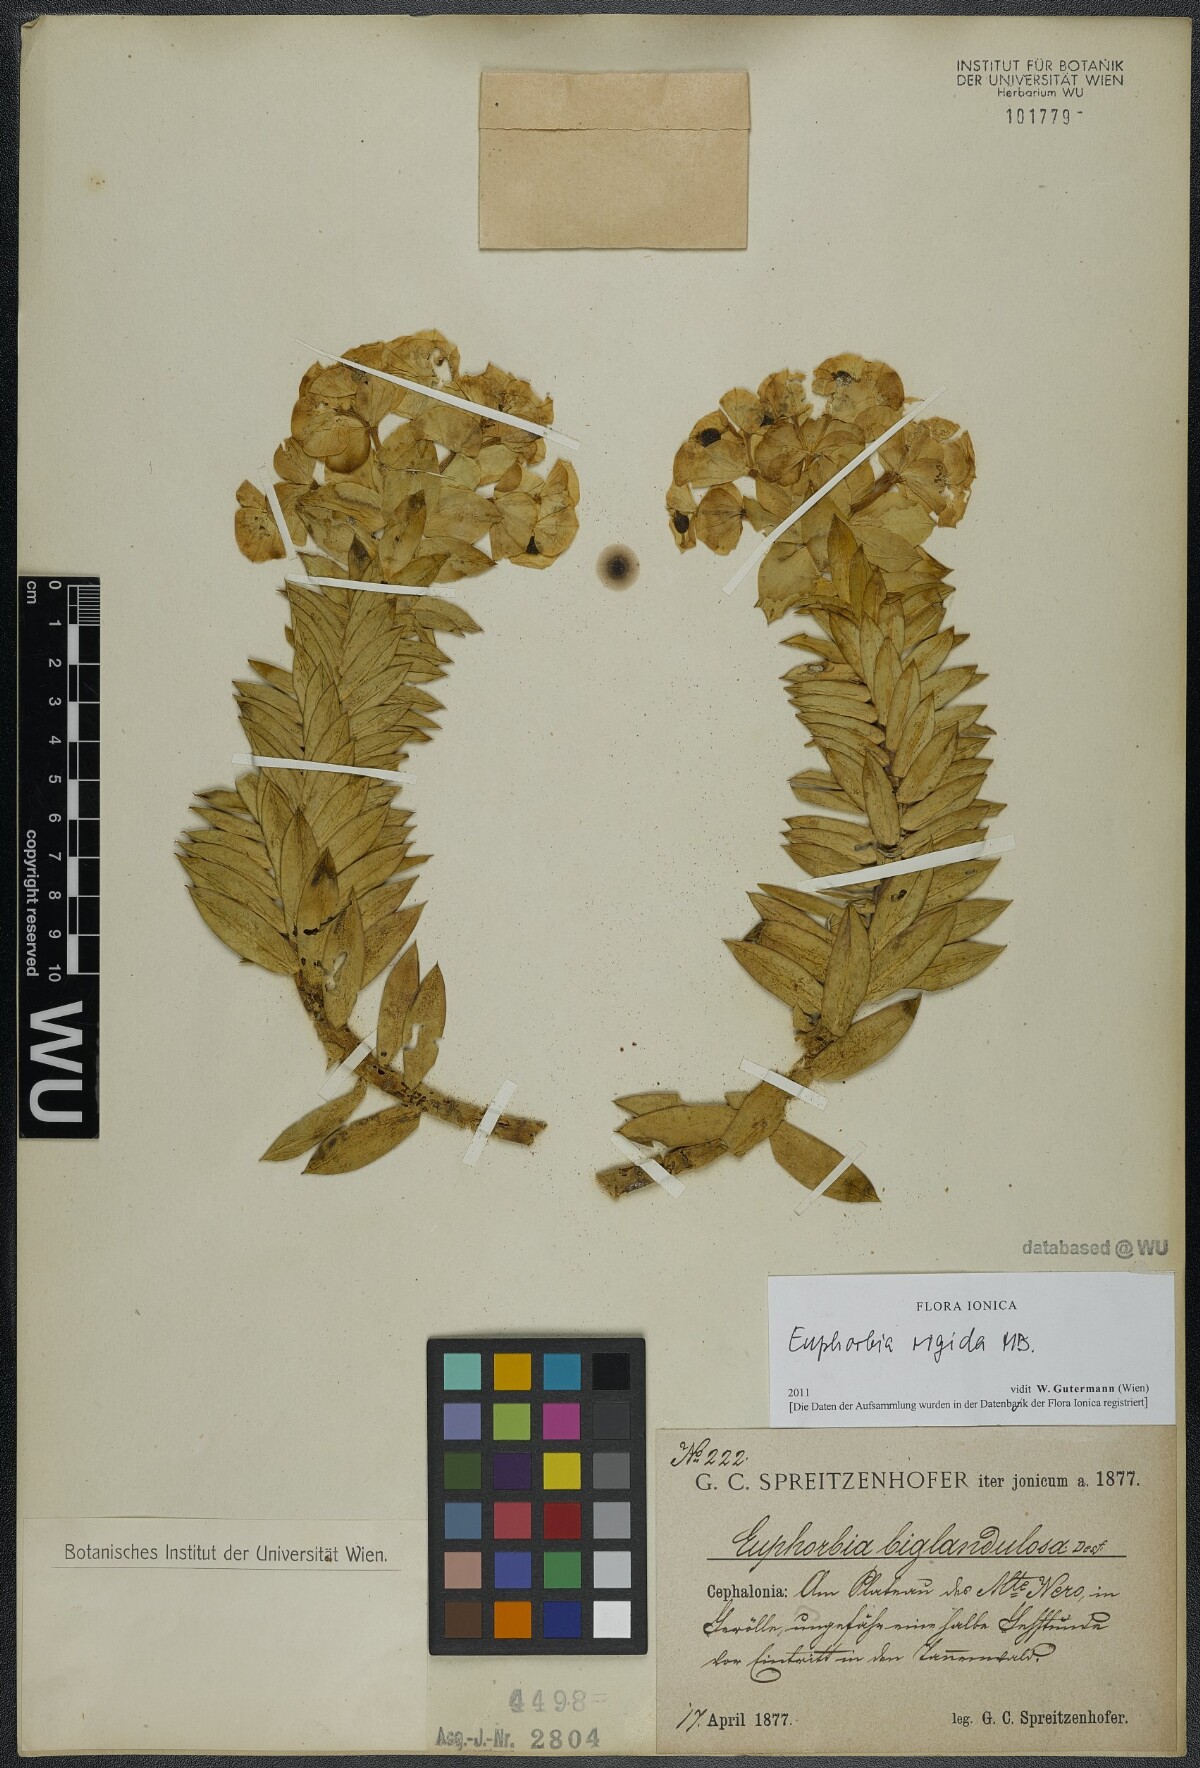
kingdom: Plantae
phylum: Tracheophyta
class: Magnoliopsida
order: Malpighiales
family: Euphorbiaceae
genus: Euphorbia
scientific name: Euphorbia rigida
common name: Upright myrtle spurge
